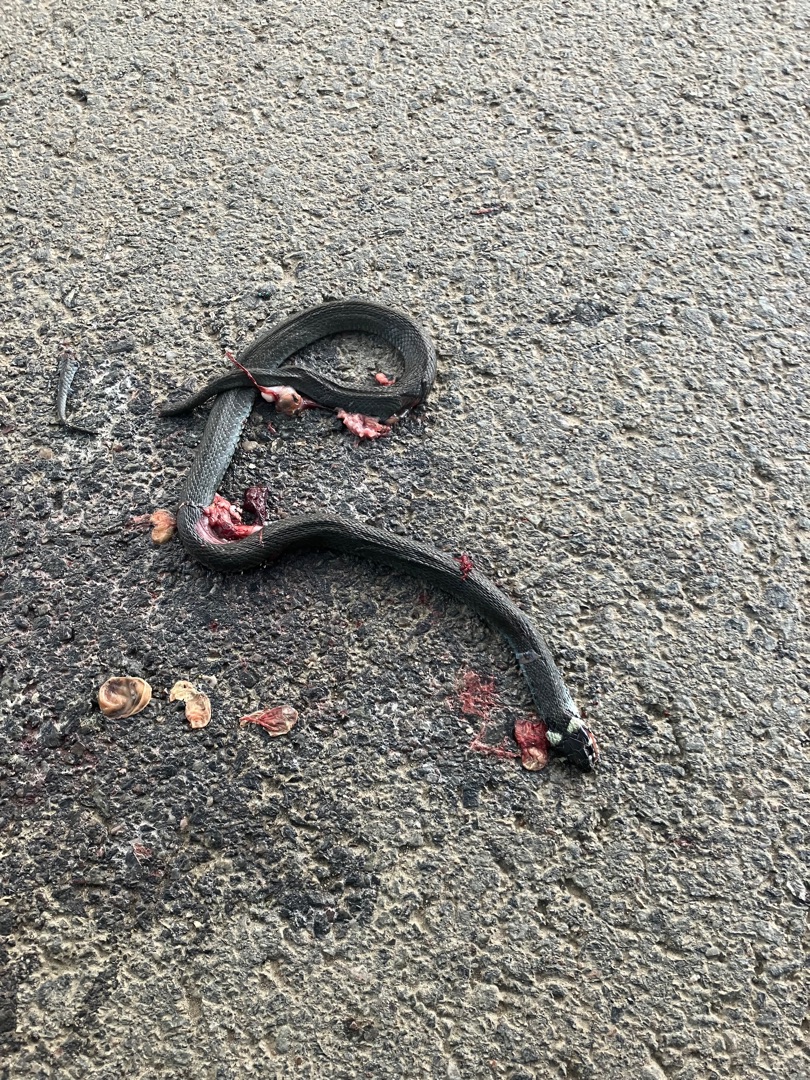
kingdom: Animalia
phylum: Chordata
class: Squamata
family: Colubridae
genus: Natrix
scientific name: Natrix natrix
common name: Snog
